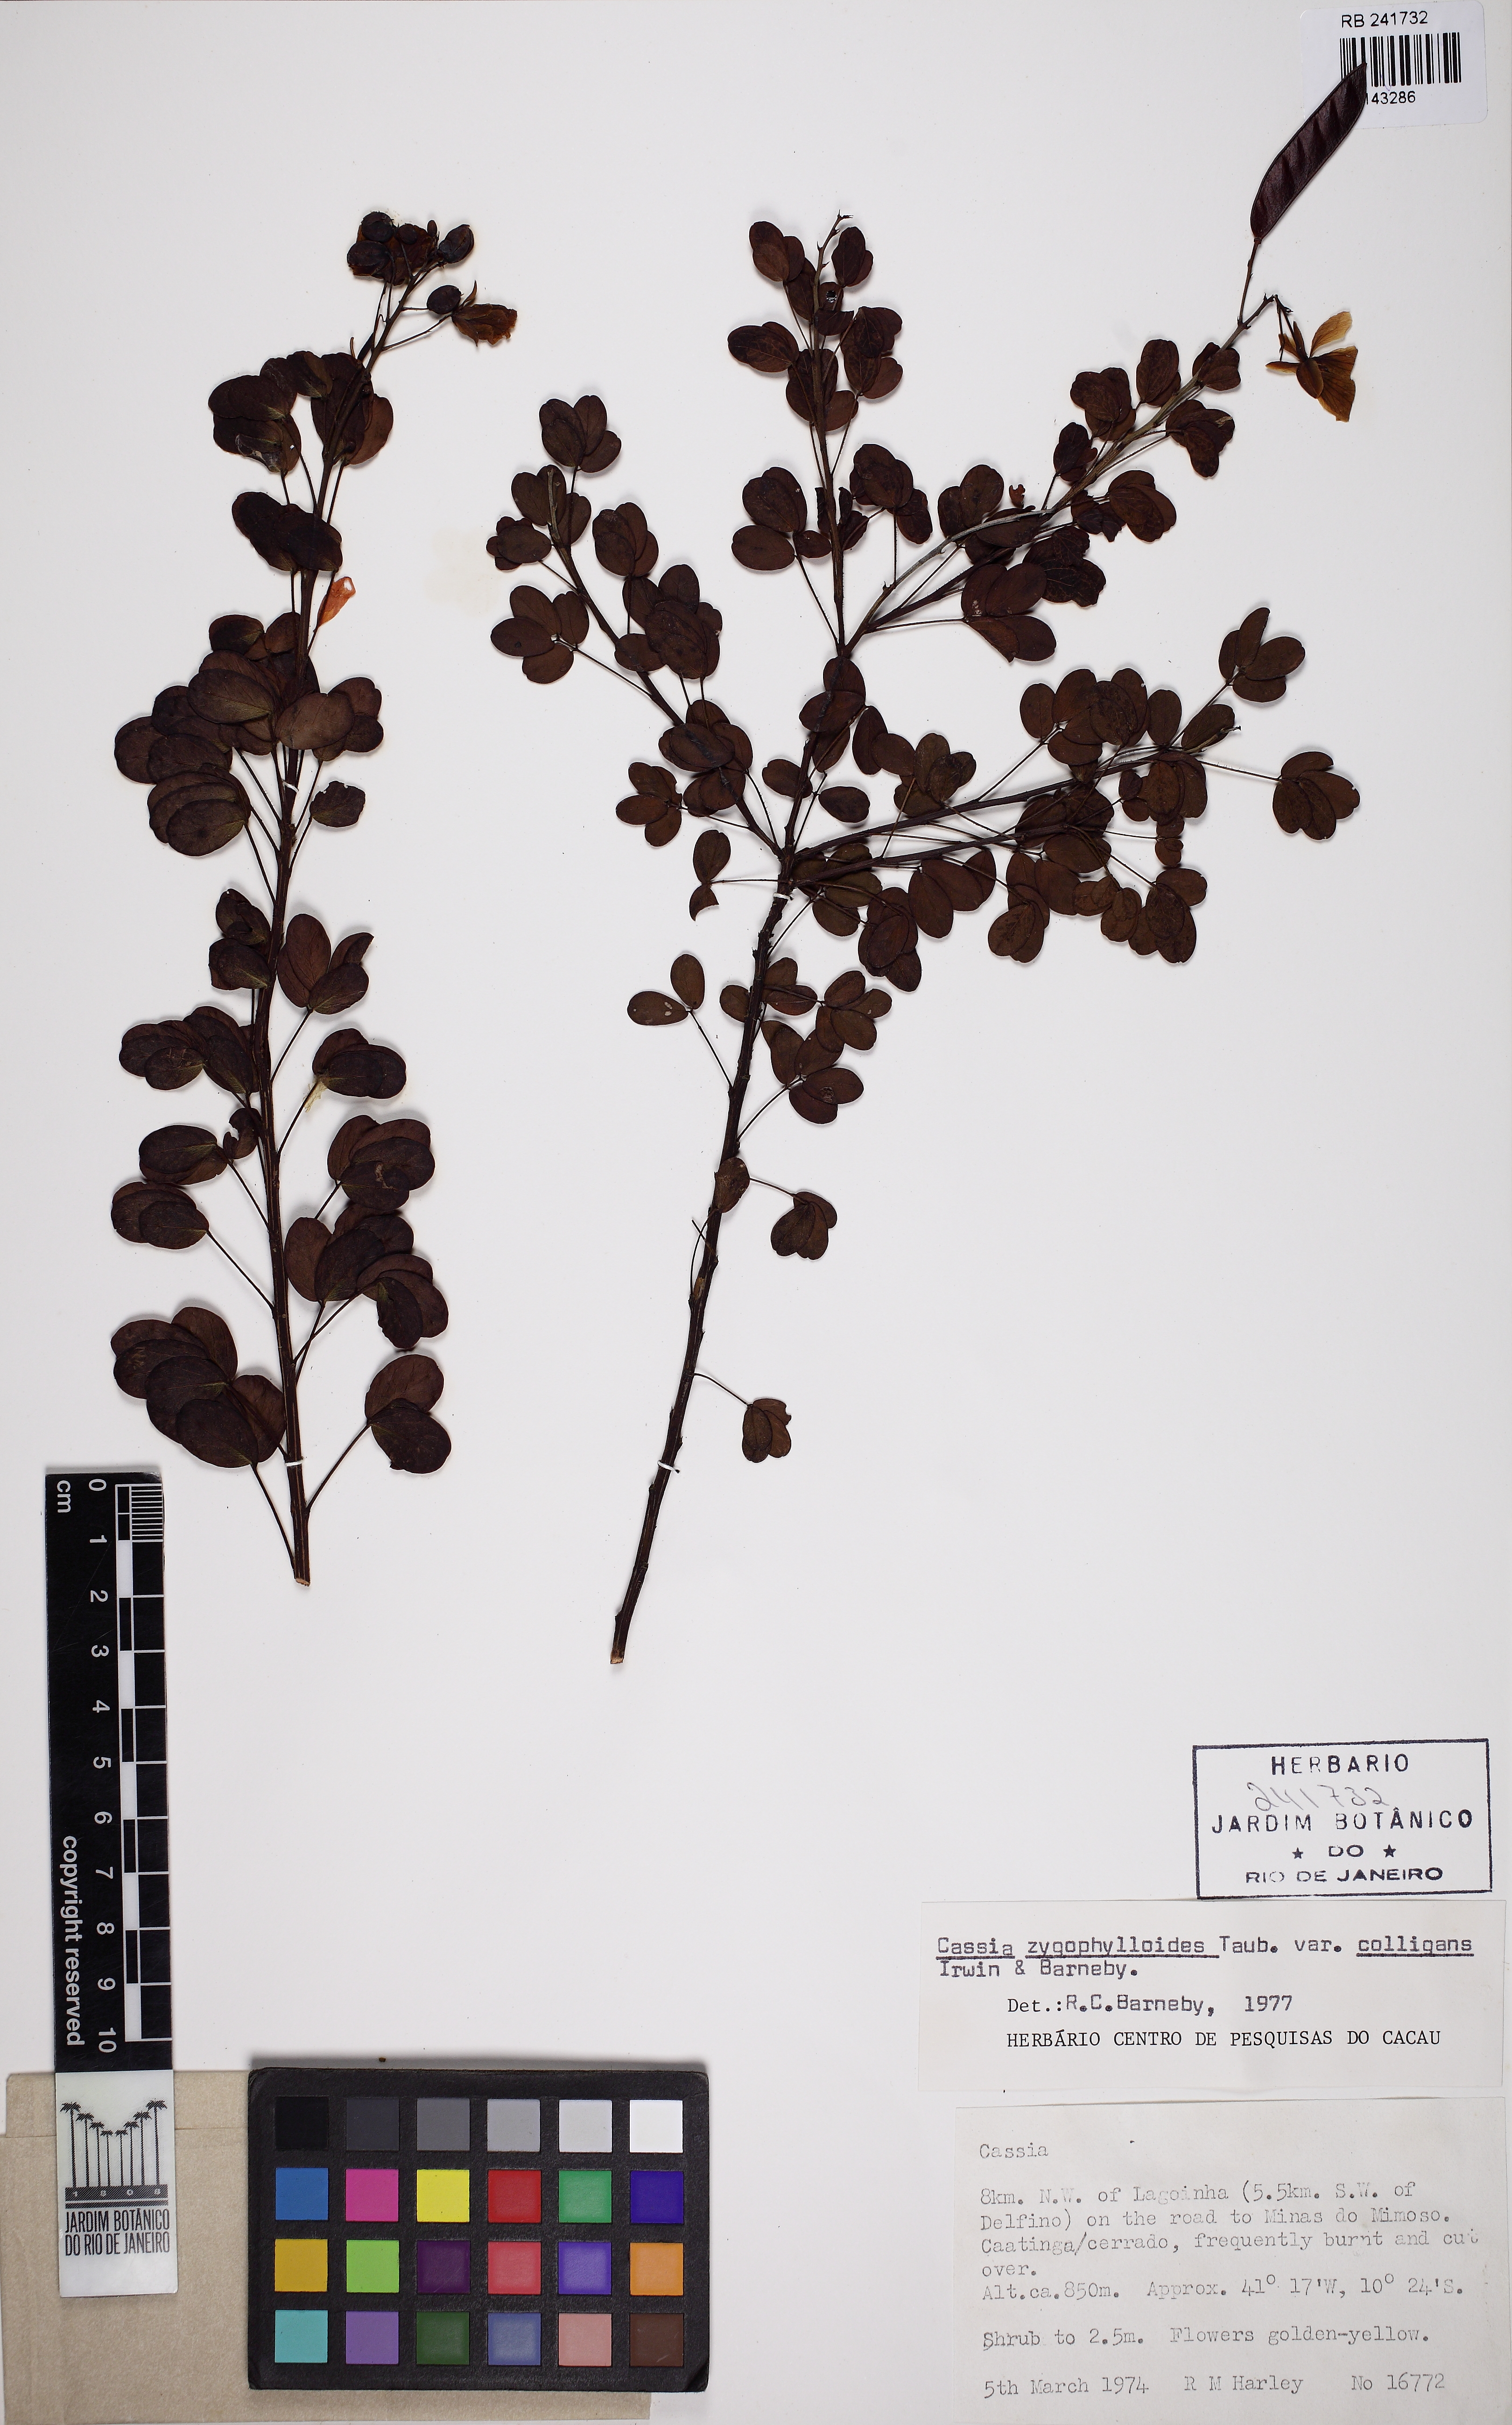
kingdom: Plantae
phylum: Tracheophyta
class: Magnoliopsida
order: Fabales
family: Fabaceae
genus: Chamaecrista
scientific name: Chamaecrista zygophylloides
